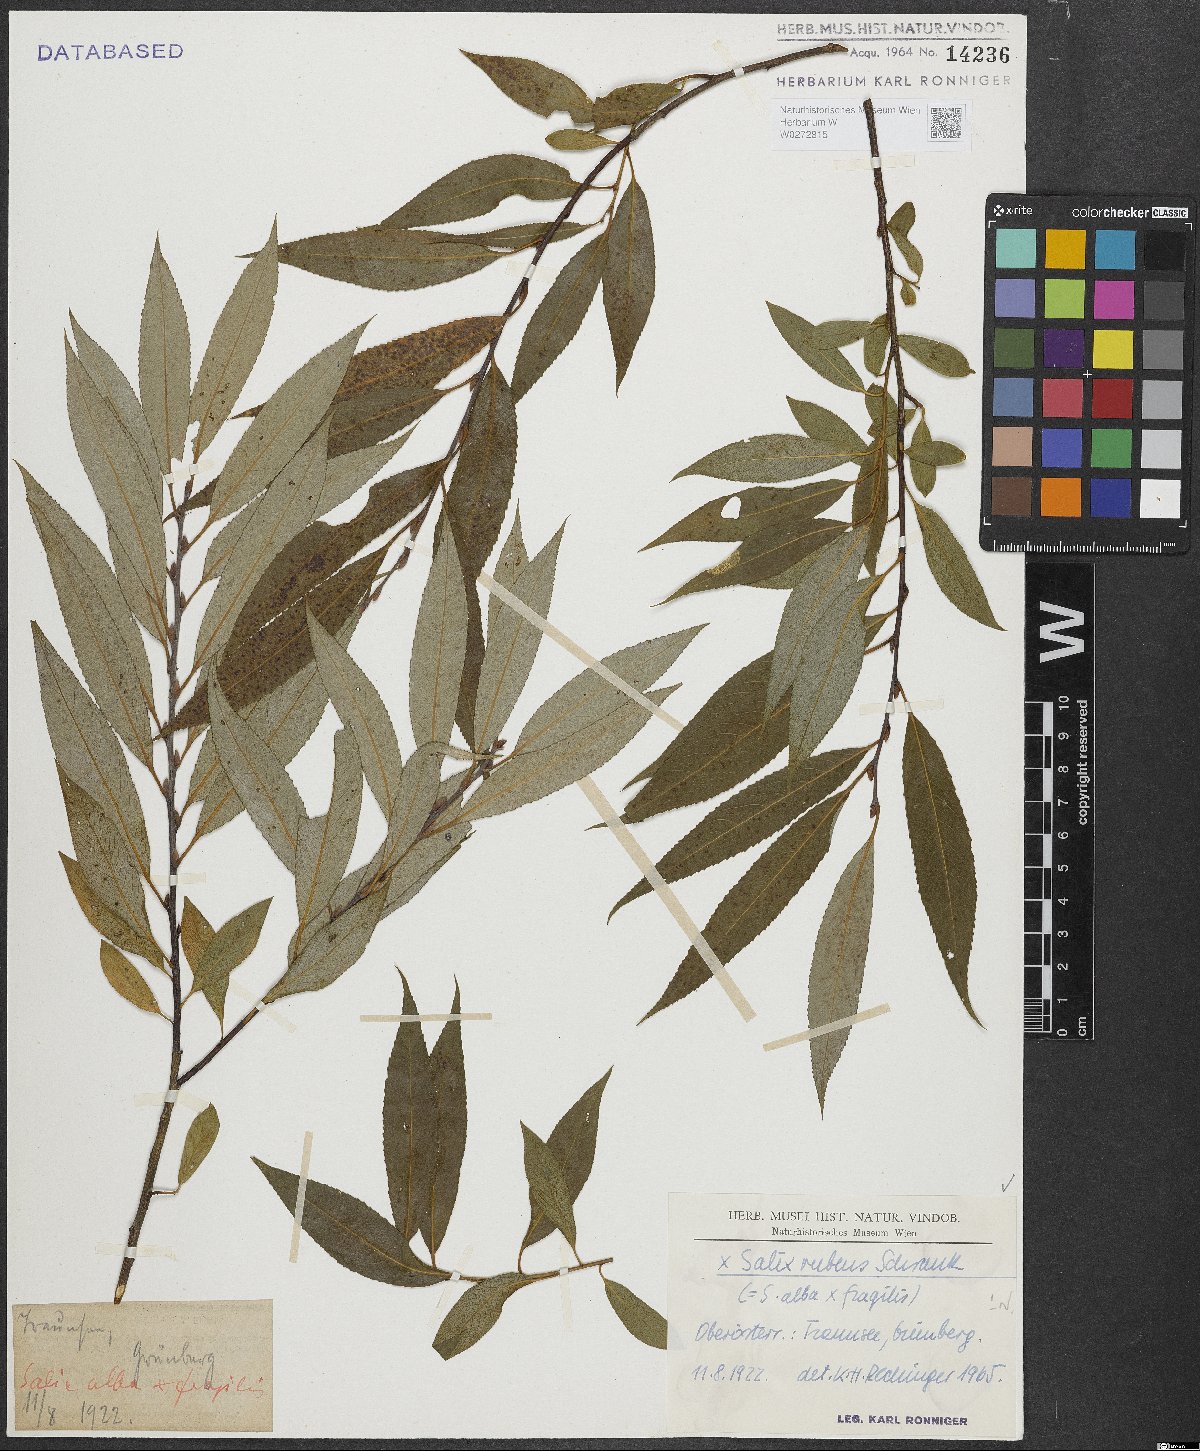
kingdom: Plantae
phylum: Tracheophyta
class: Magnoliopsida
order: Malpighiales
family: Salicaceae
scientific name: Salicaceae
